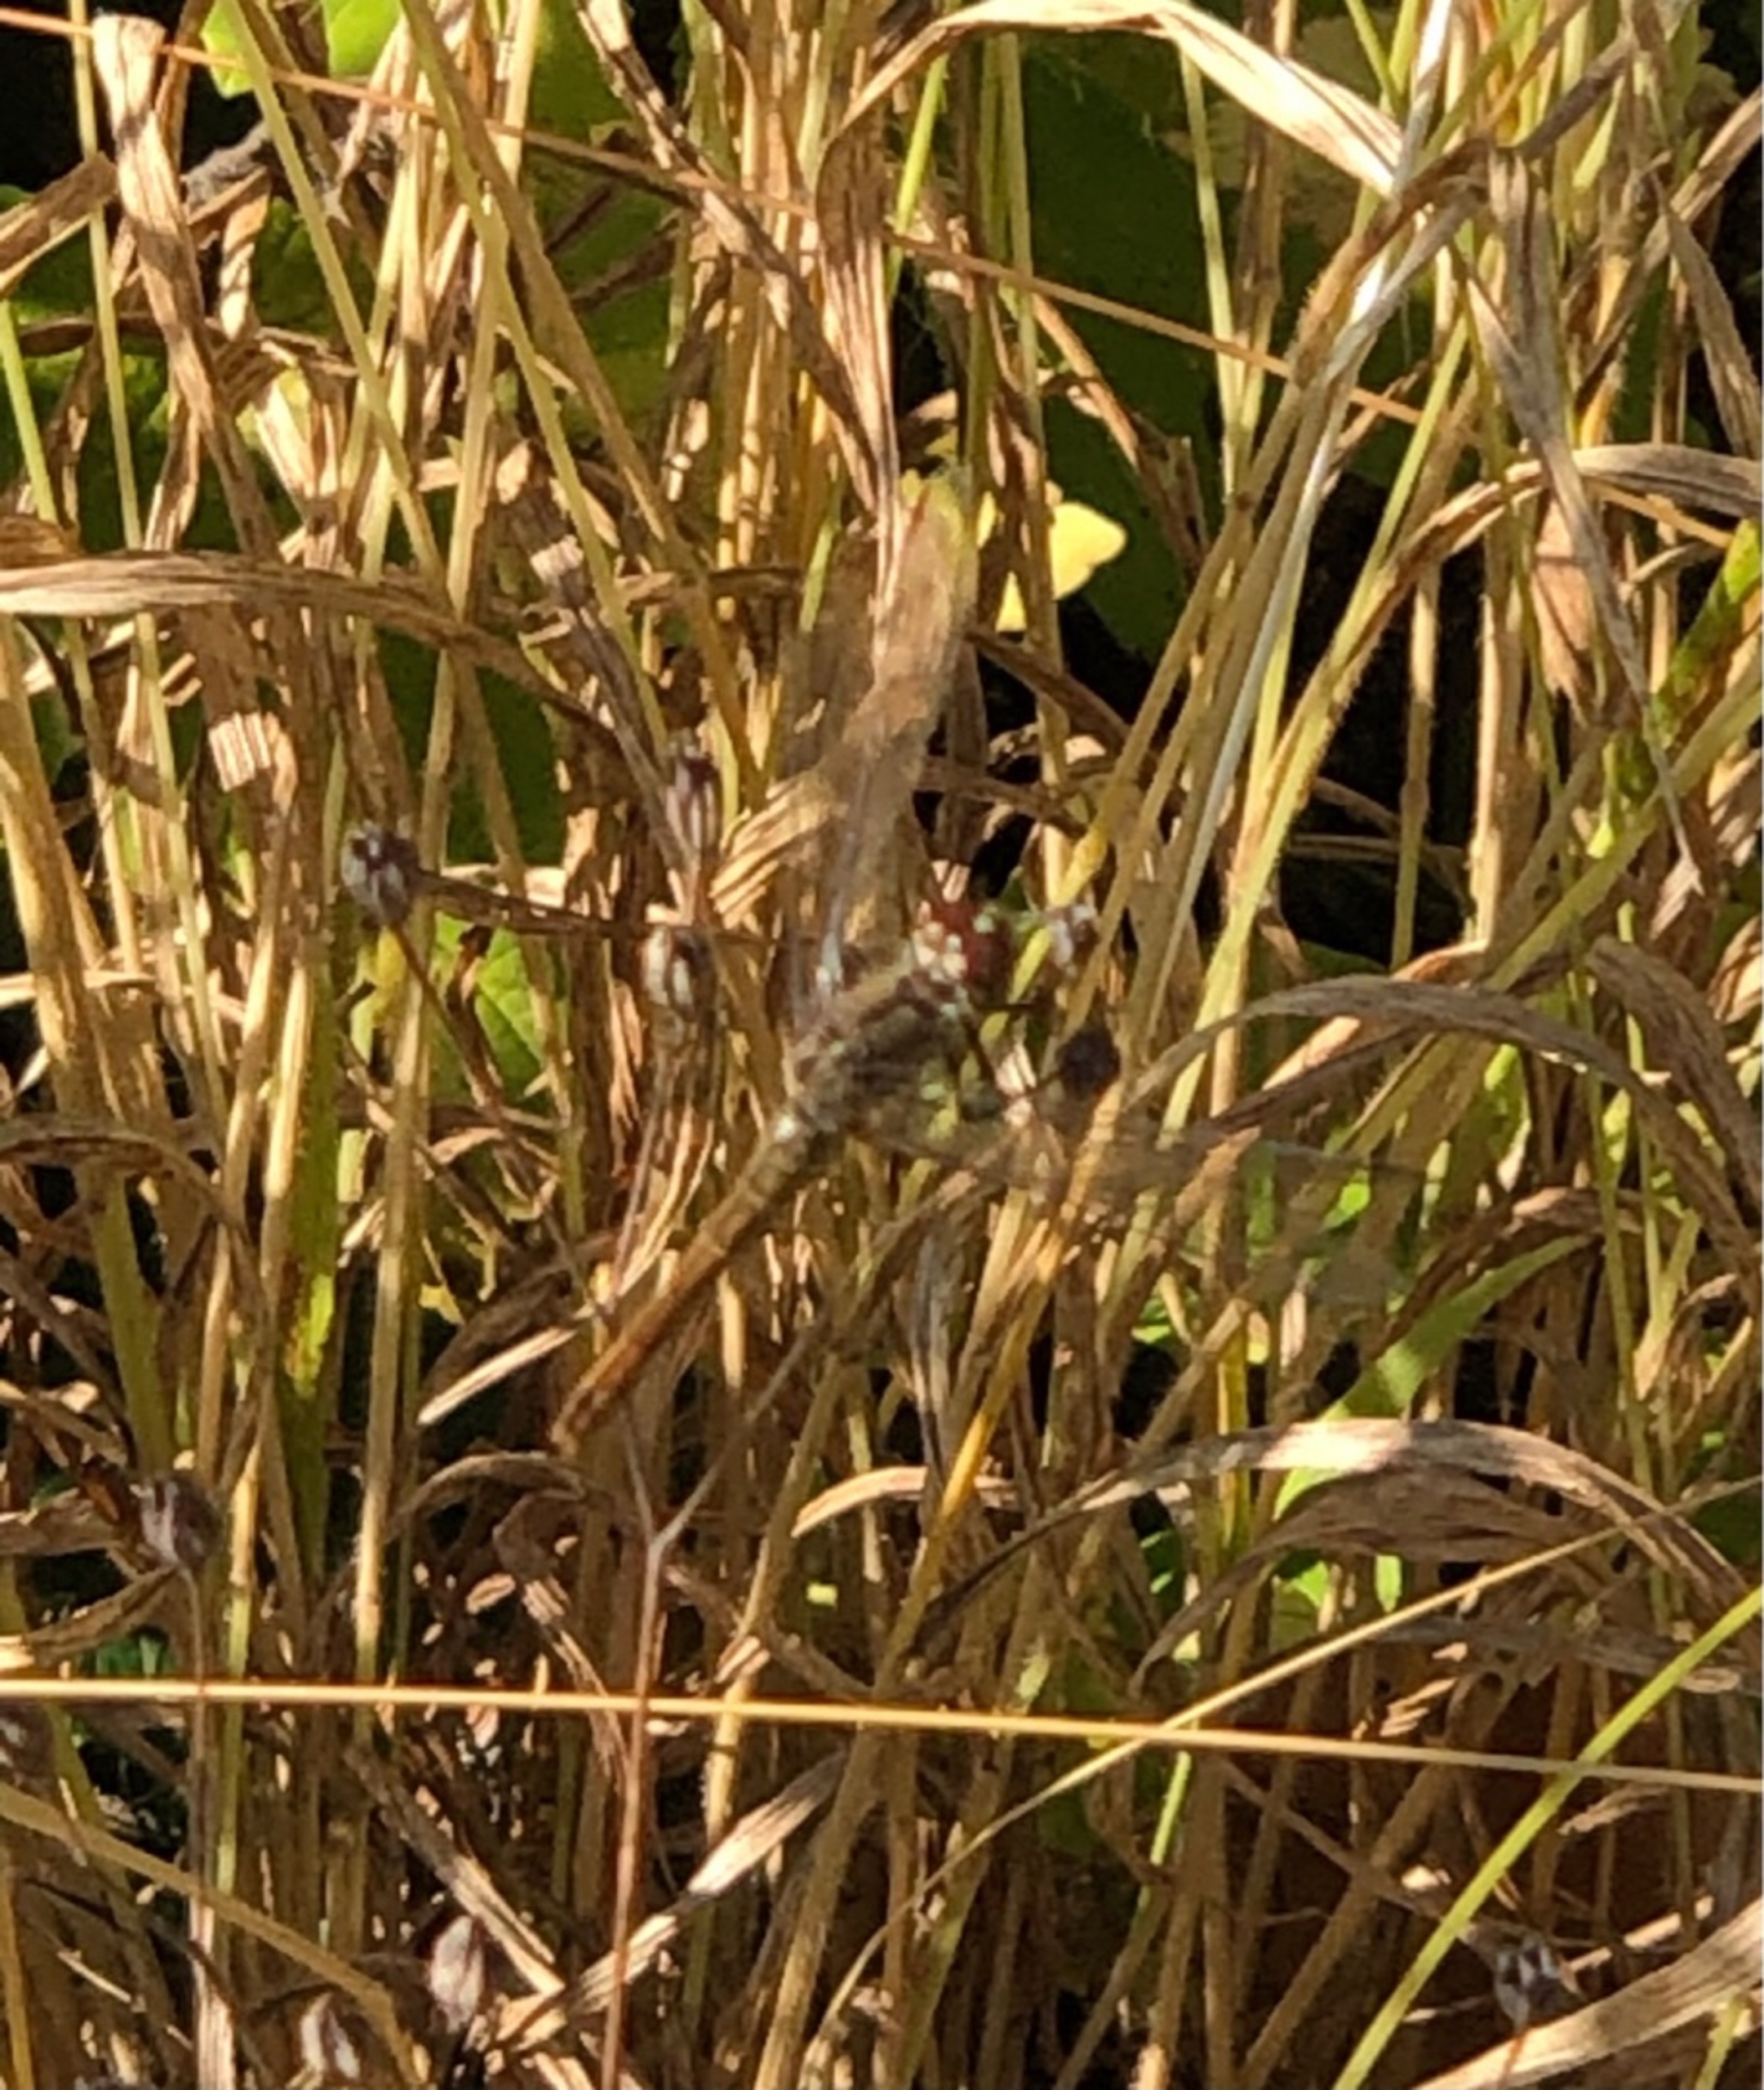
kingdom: Animalia
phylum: Arthropoda
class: Insecta
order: Odonata
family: Libellulidae
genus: Sympetrum
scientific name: Sympetrum
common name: Hedelibeller
